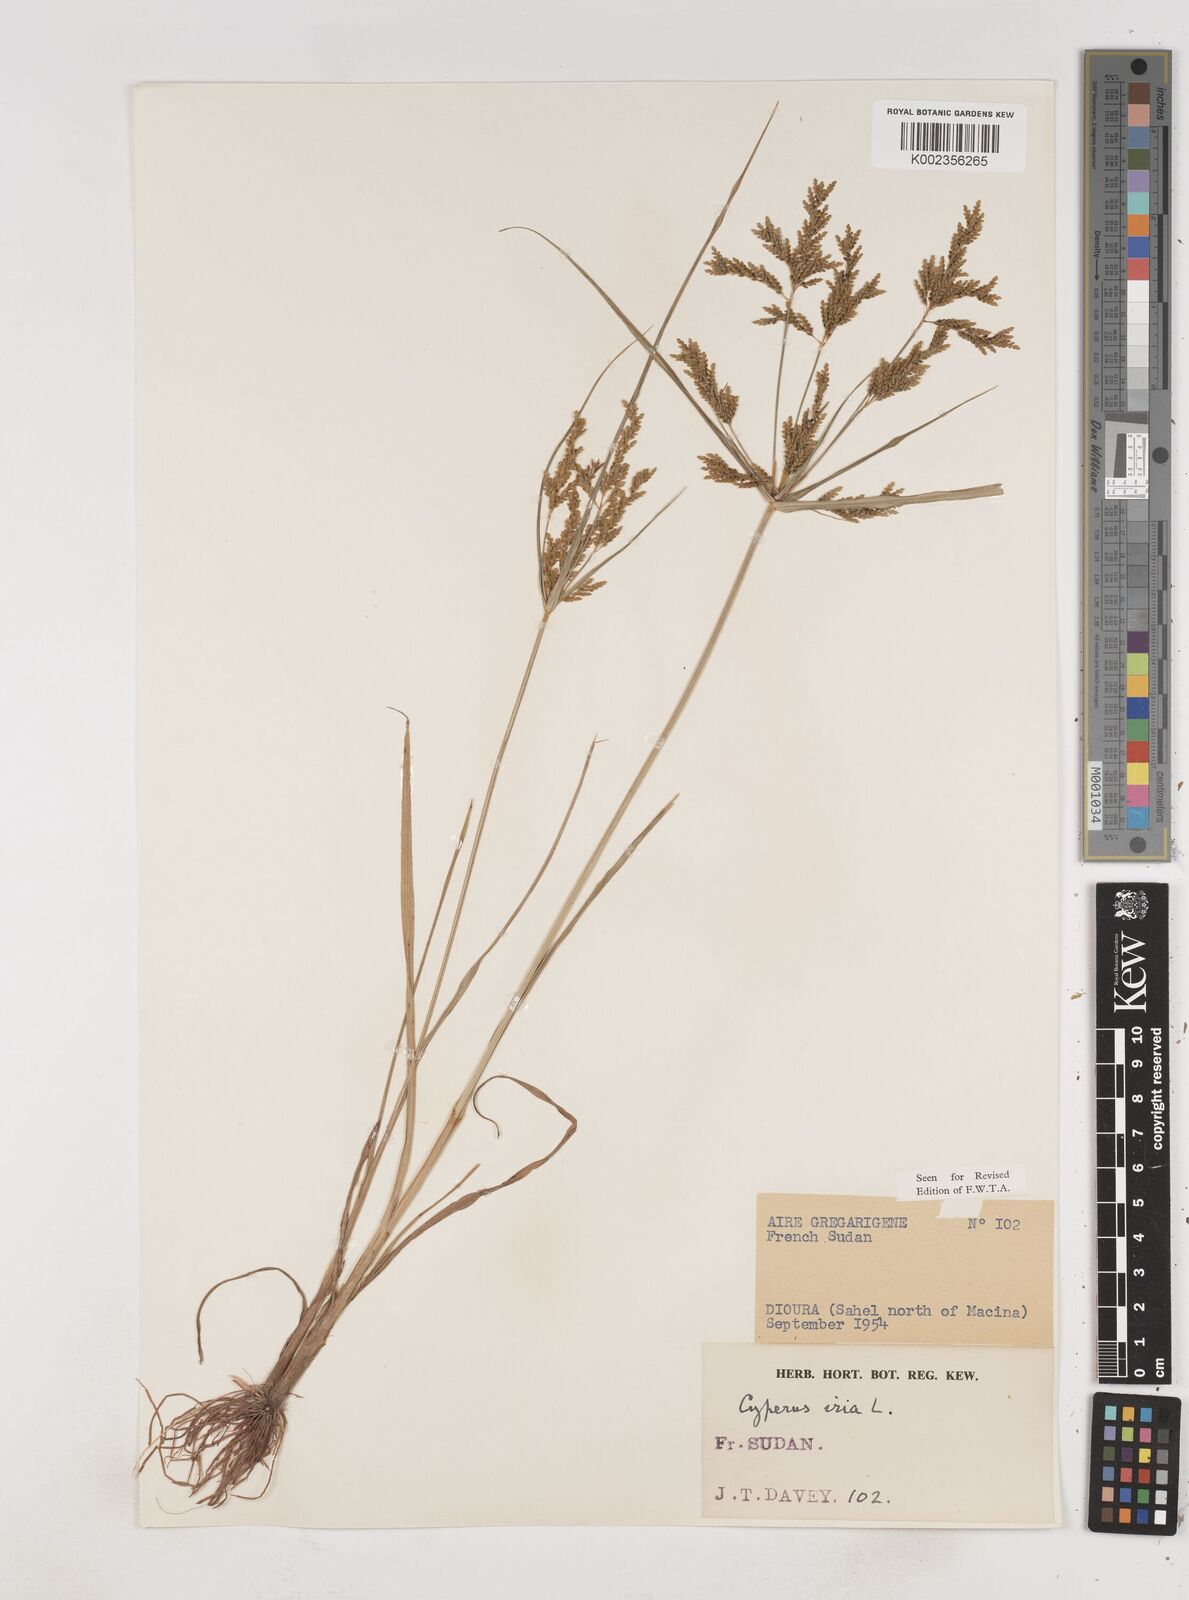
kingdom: Plantae
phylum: Tracheophyta
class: Liliopsida
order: Poales
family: Cyperaceae
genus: Cyperus
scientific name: Cyperus iria
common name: Ricefield flatsedge
